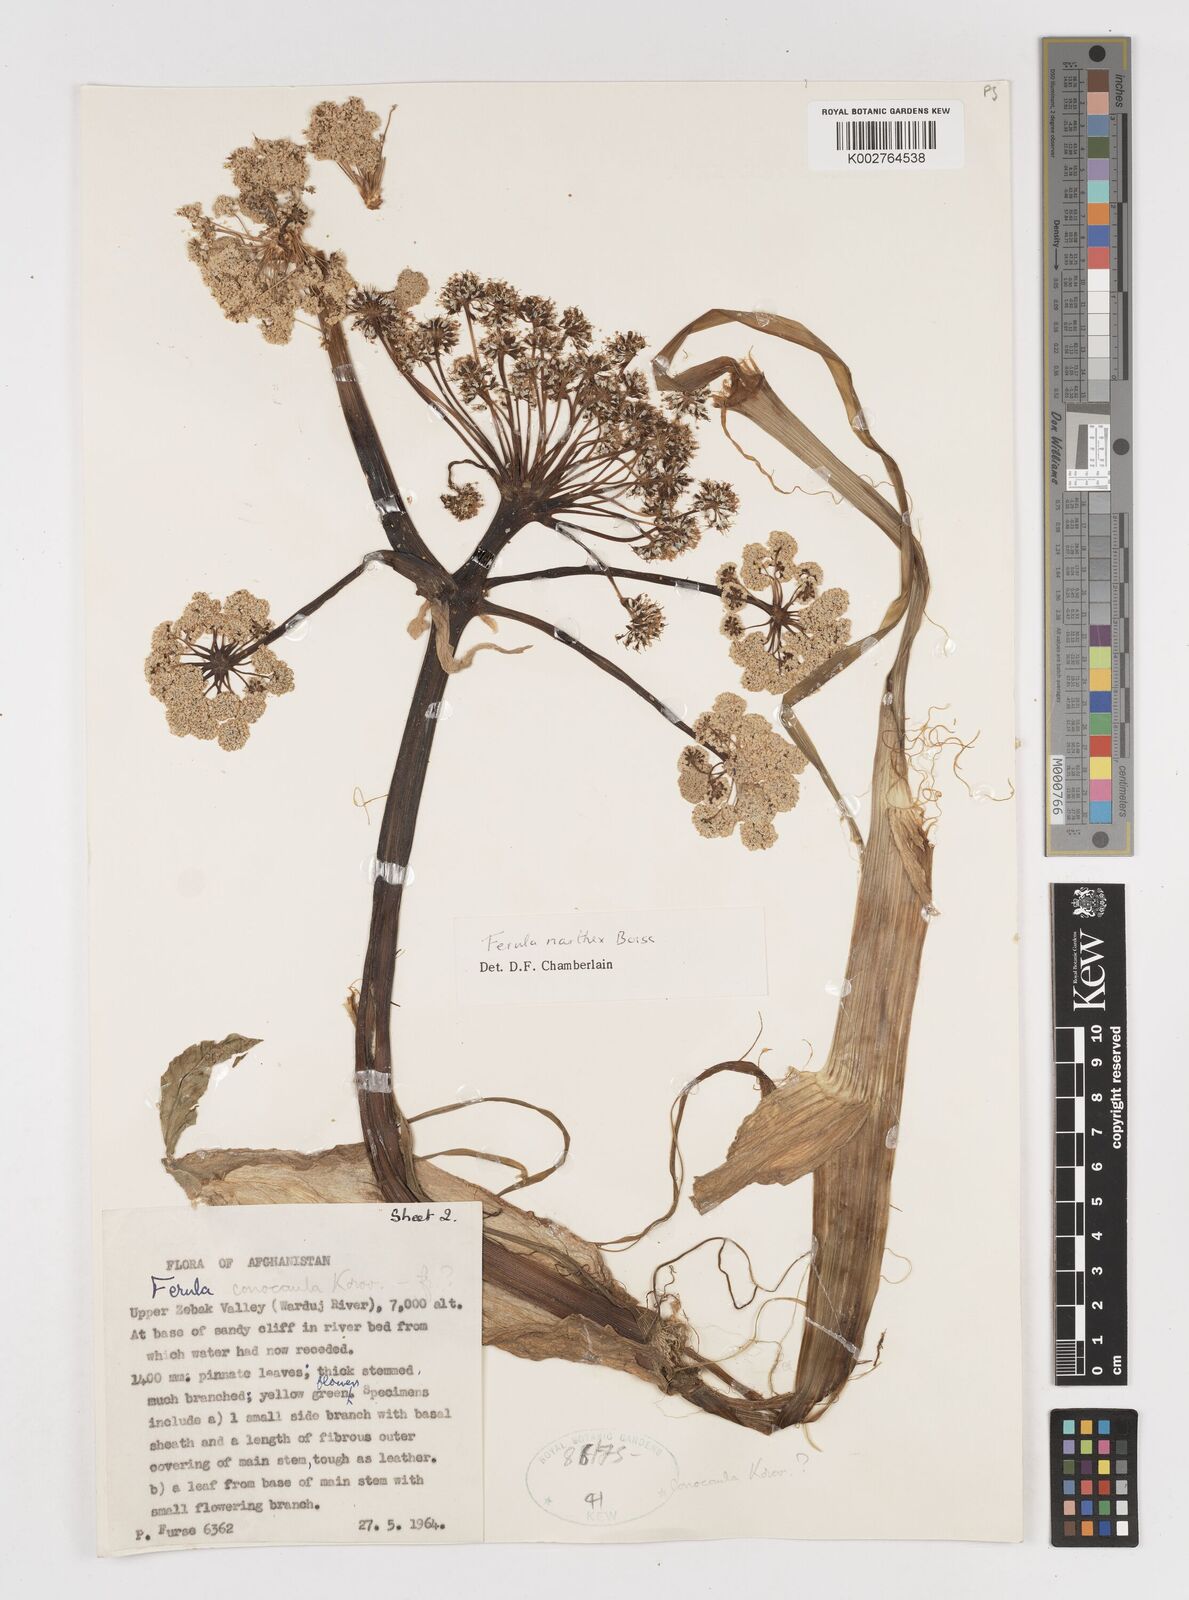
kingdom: Plantae
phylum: Tracheophyta
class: Magnoliopsida
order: Apiales
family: Apiaceae
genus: Ferula
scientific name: Ferula narthex
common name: Hing asafetida
